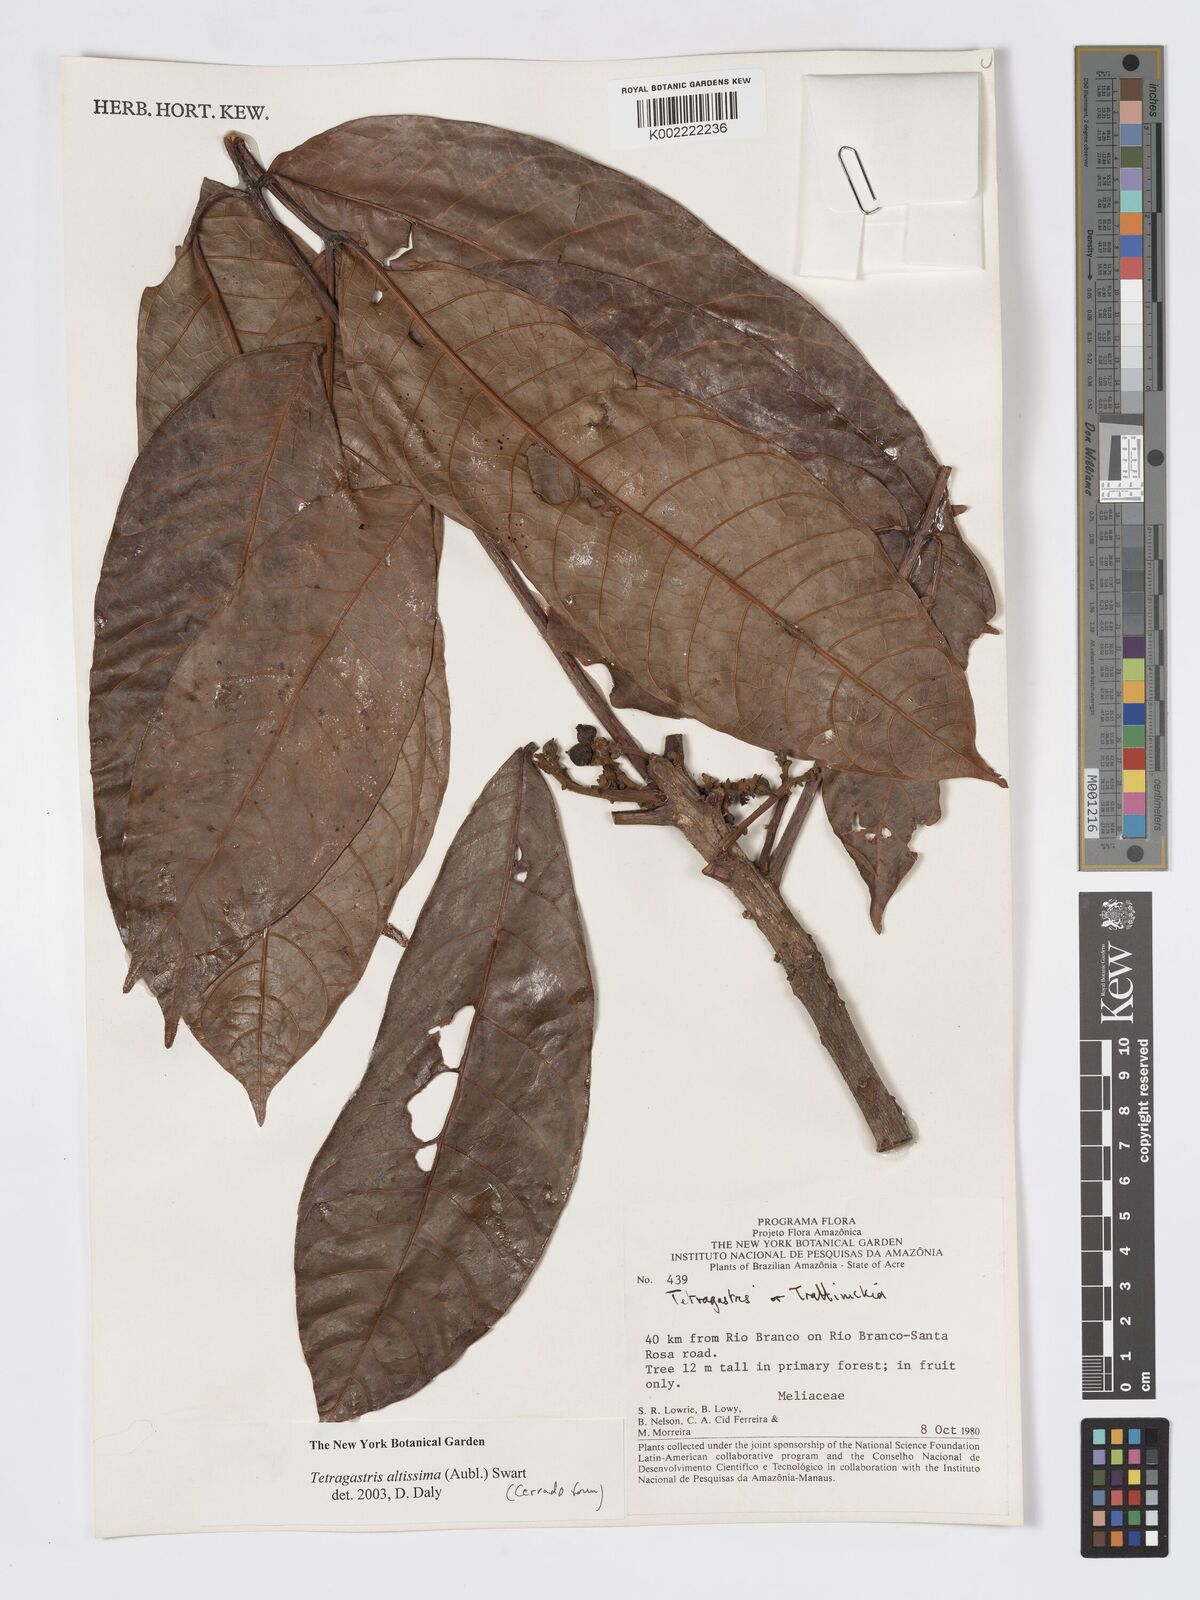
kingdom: Plantae
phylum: Tracheophyta
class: Magnoliopsida
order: Sapindales
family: Burseraceae
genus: Tetragastris
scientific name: Tetragastris altissima
